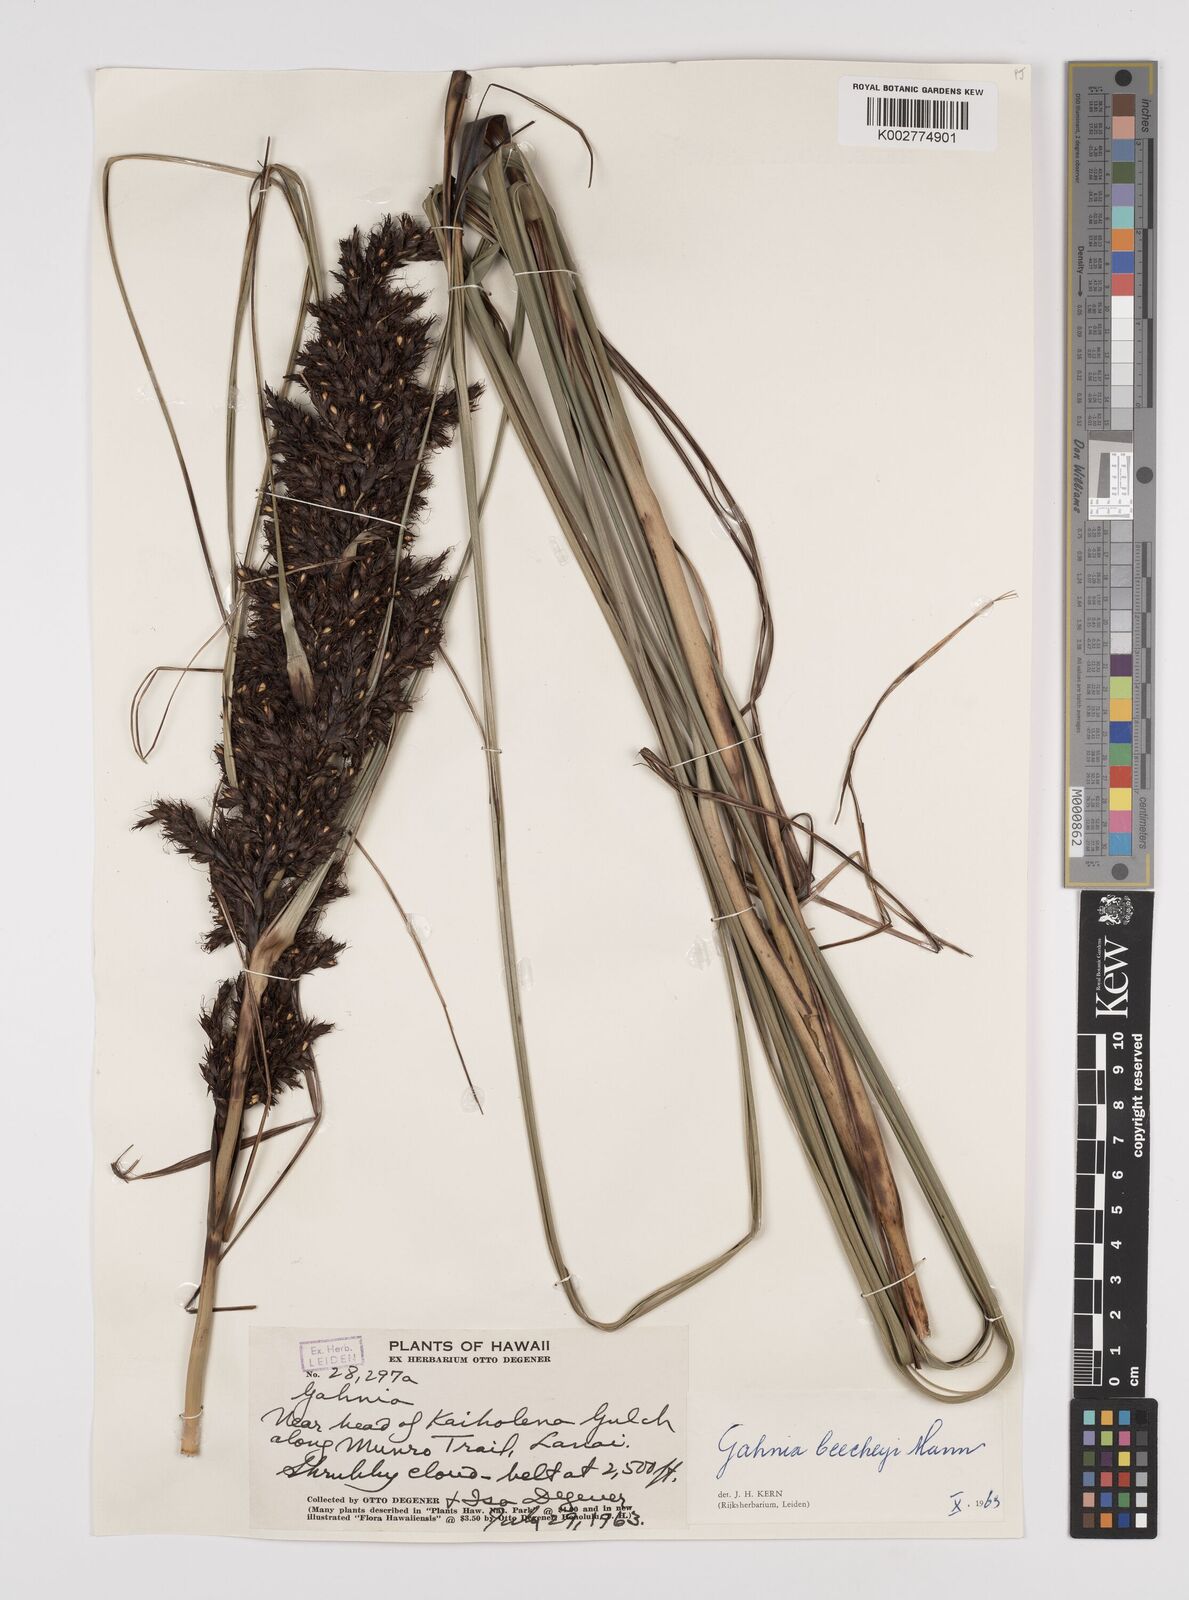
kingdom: Plantae
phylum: Tracheophyta
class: Liliopsida
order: Poales
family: Cyperaceae
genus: Gahnia
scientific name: Gahnia beecheyi
